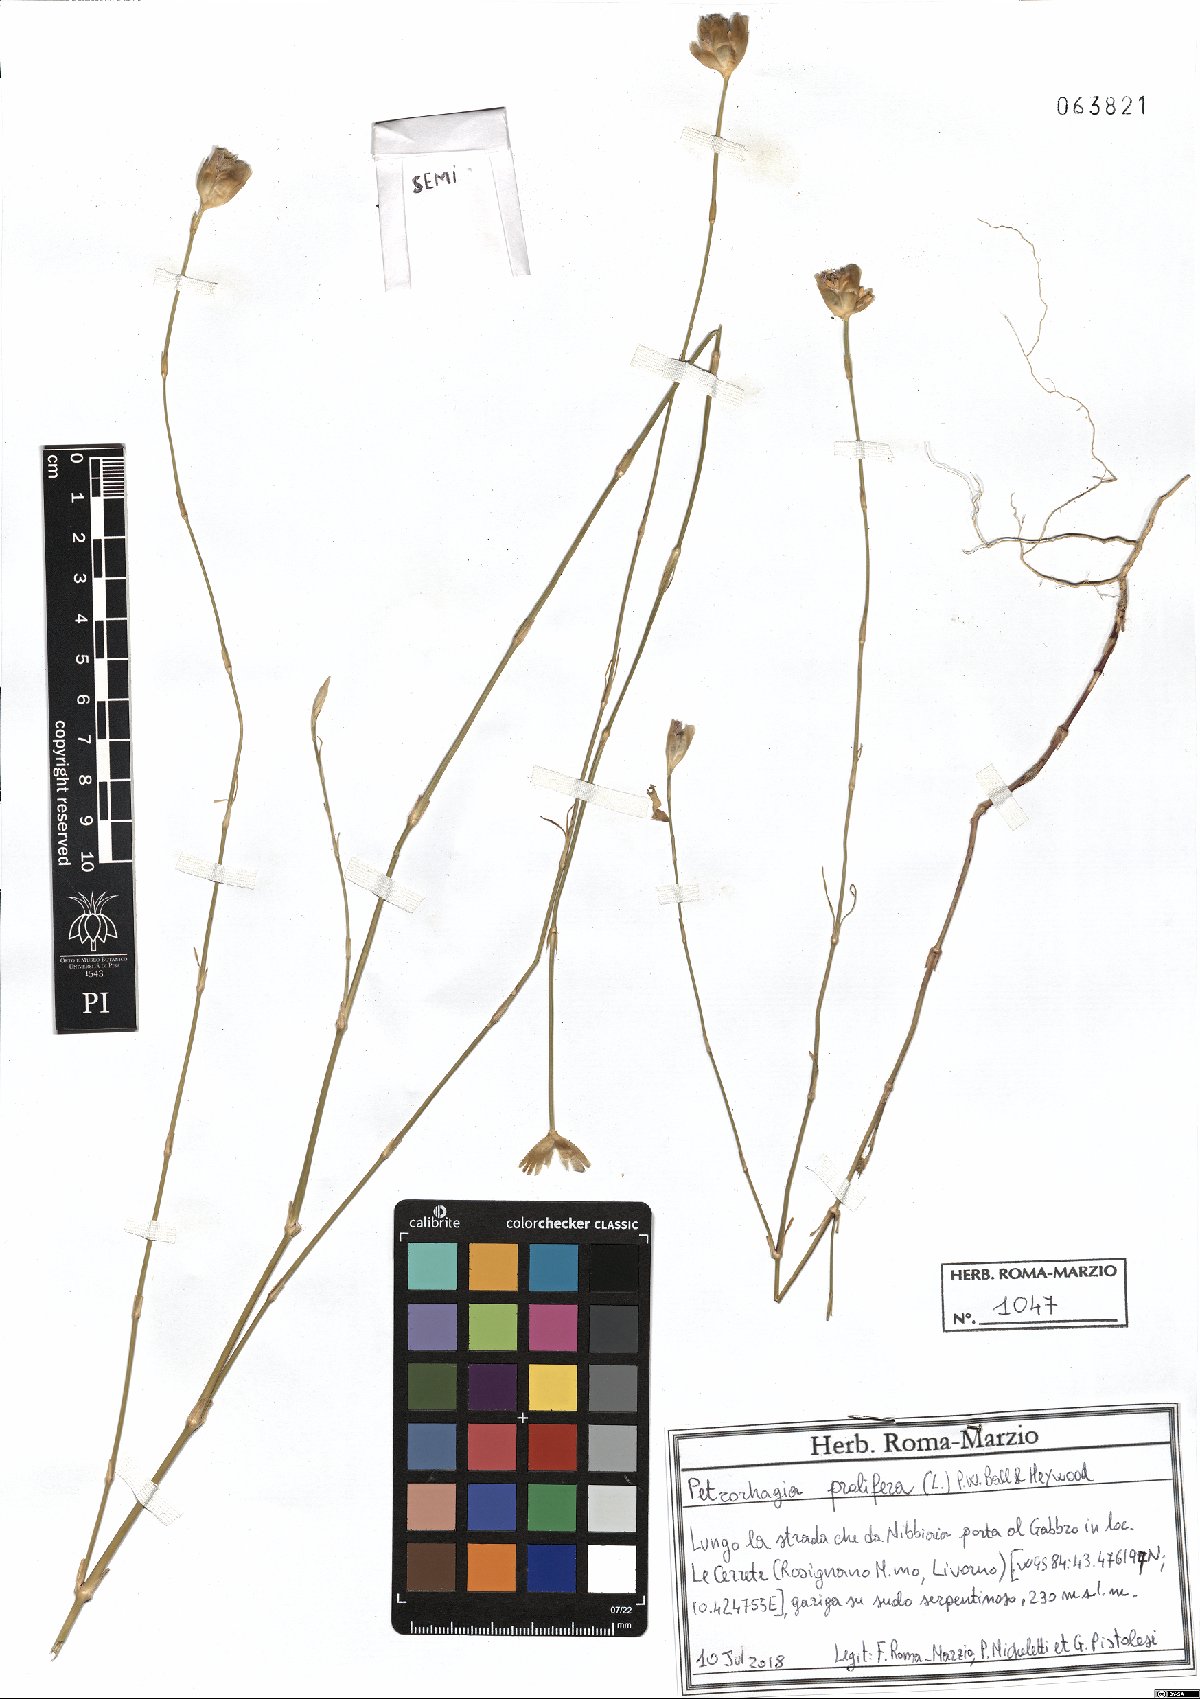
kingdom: Plantae
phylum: Tracheophyta
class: Magnoliopsida
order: Caryophyllales
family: Caryophyllaceae
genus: Petrorhagia
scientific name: Petrorhagia prolifera
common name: Proliferous pink
